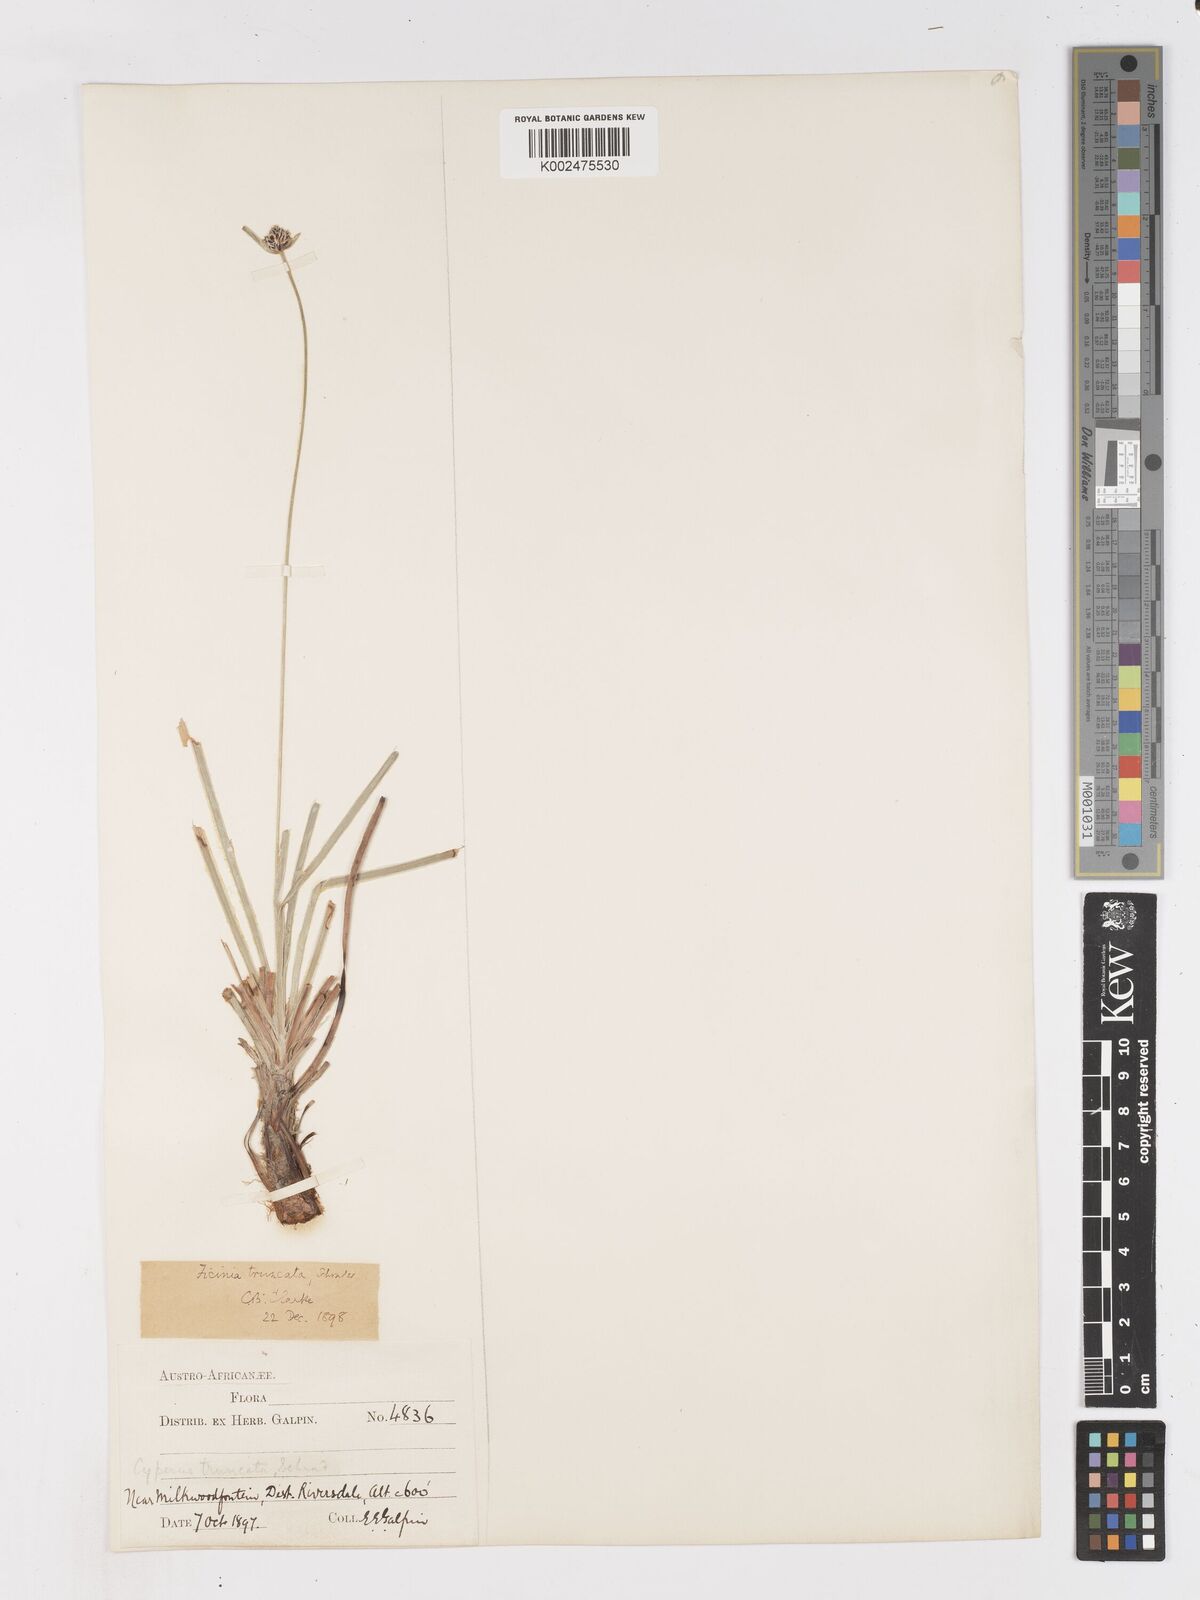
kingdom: Plantae
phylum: Tracheophyta
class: Liliopsida
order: Poales
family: Cyperaceae
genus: Ficinia
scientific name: Ficinia truncata
